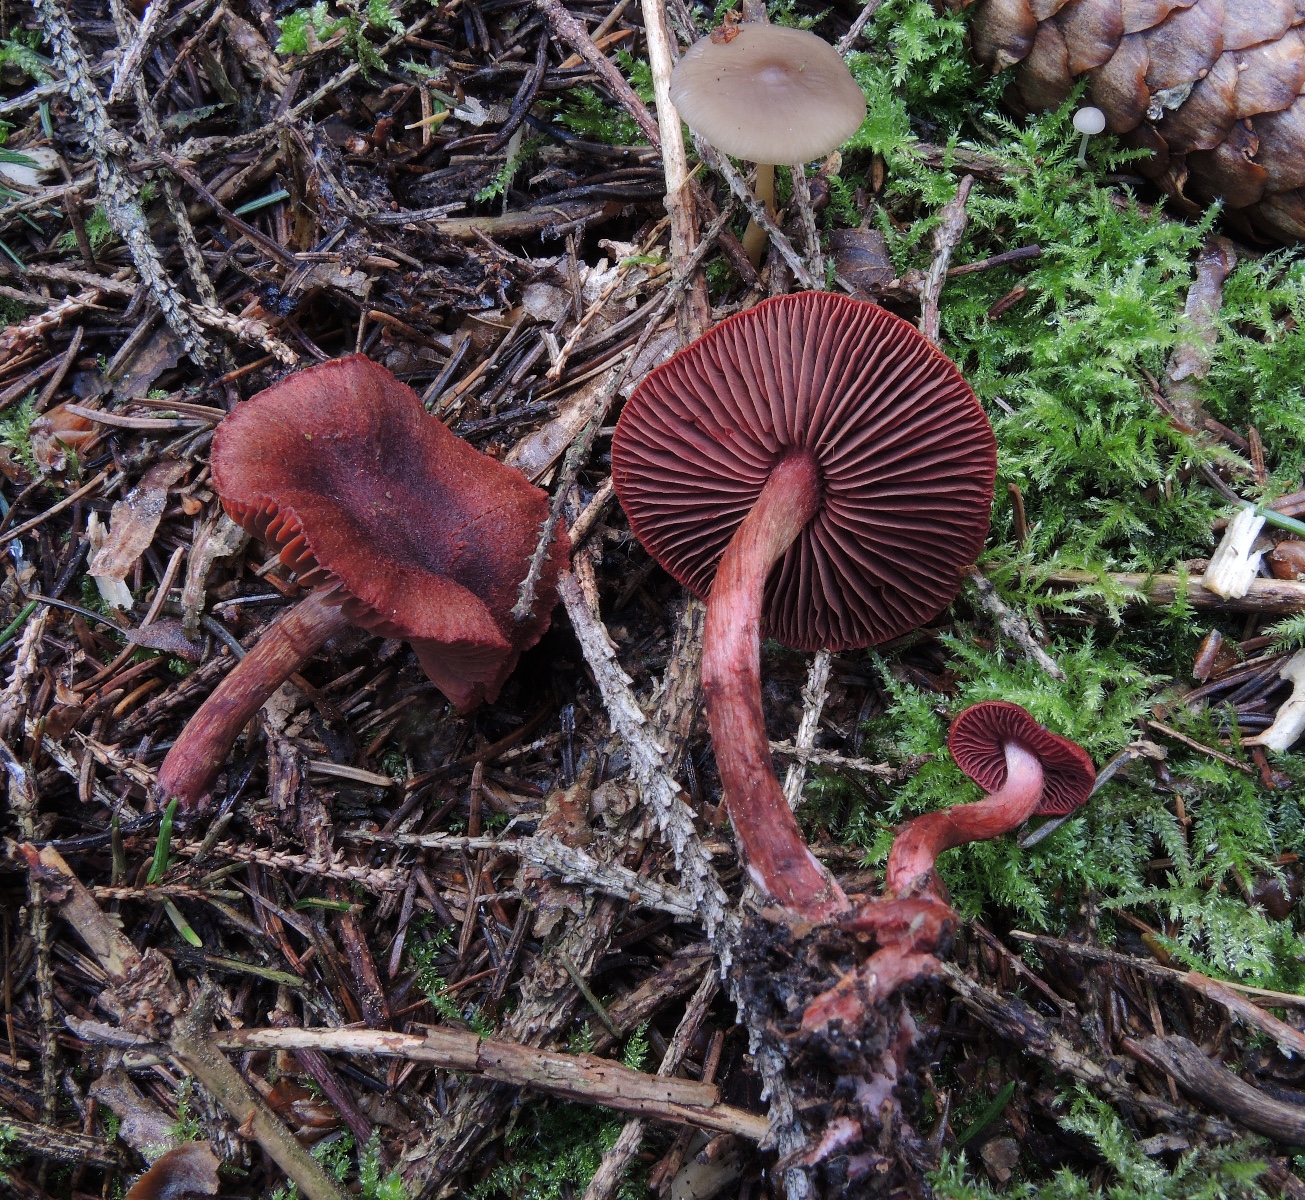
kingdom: Fungi
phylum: Basidiomycota
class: Agaricomycetes
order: Agaricales
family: Cortinariaceae
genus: Cortinarius
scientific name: Cortinarius sanguineus
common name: blodrød slørhat
